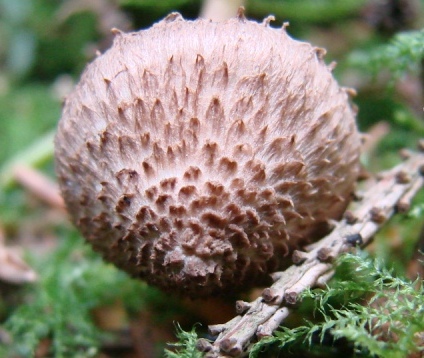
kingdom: Fungi
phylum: Basidiomycota
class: Agaricomycetes
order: Agaricales
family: Inocybaceae
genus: Inocybe
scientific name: Inocybe cincinnata
